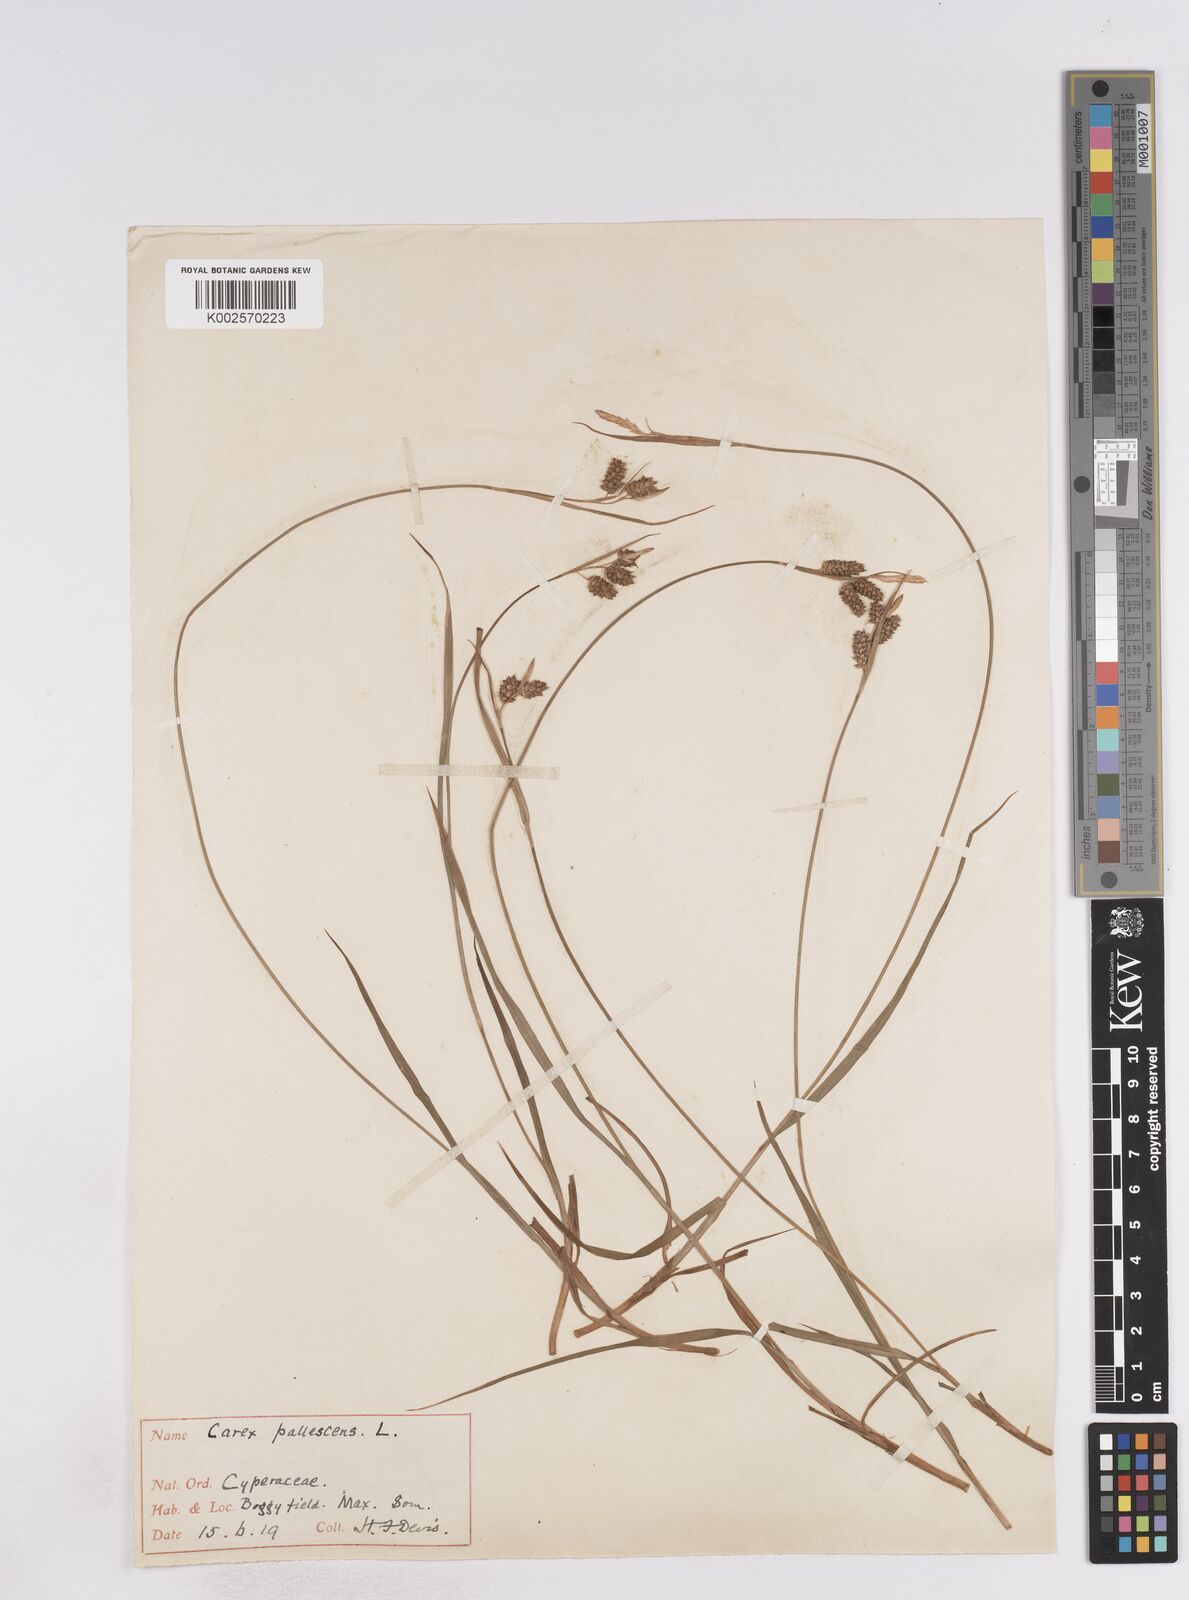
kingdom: Plantae
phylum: Tracheophyta
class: Liliopsida
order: Poales
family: Cyperaceae
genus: Carex
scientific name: Carex pallescens
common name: Pale sedge
